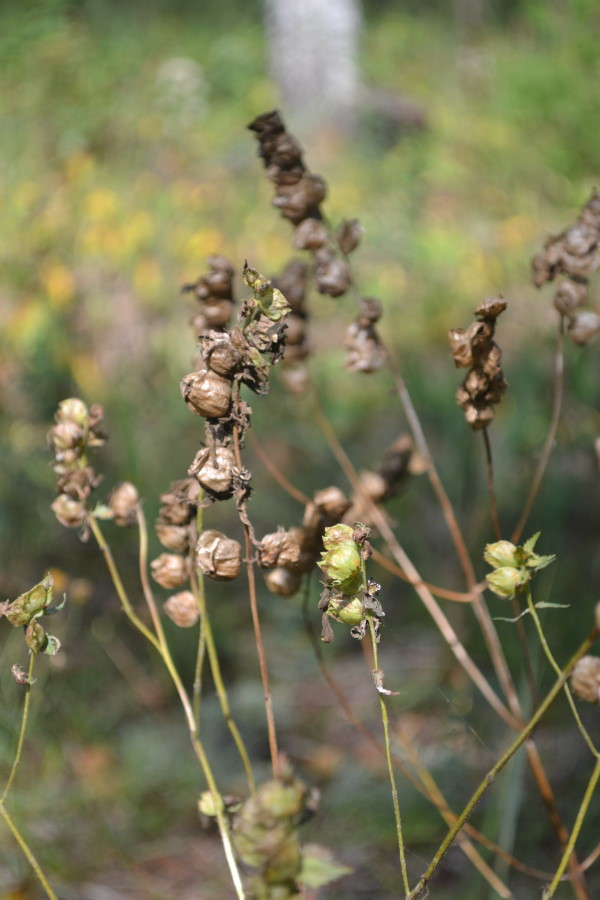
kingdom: Plantae
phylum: Tracheophyta
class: Magnoliopsida
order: Lamiales
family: Orobanchaceae
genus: Rhinanthus
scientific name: Rhinanthus minor
